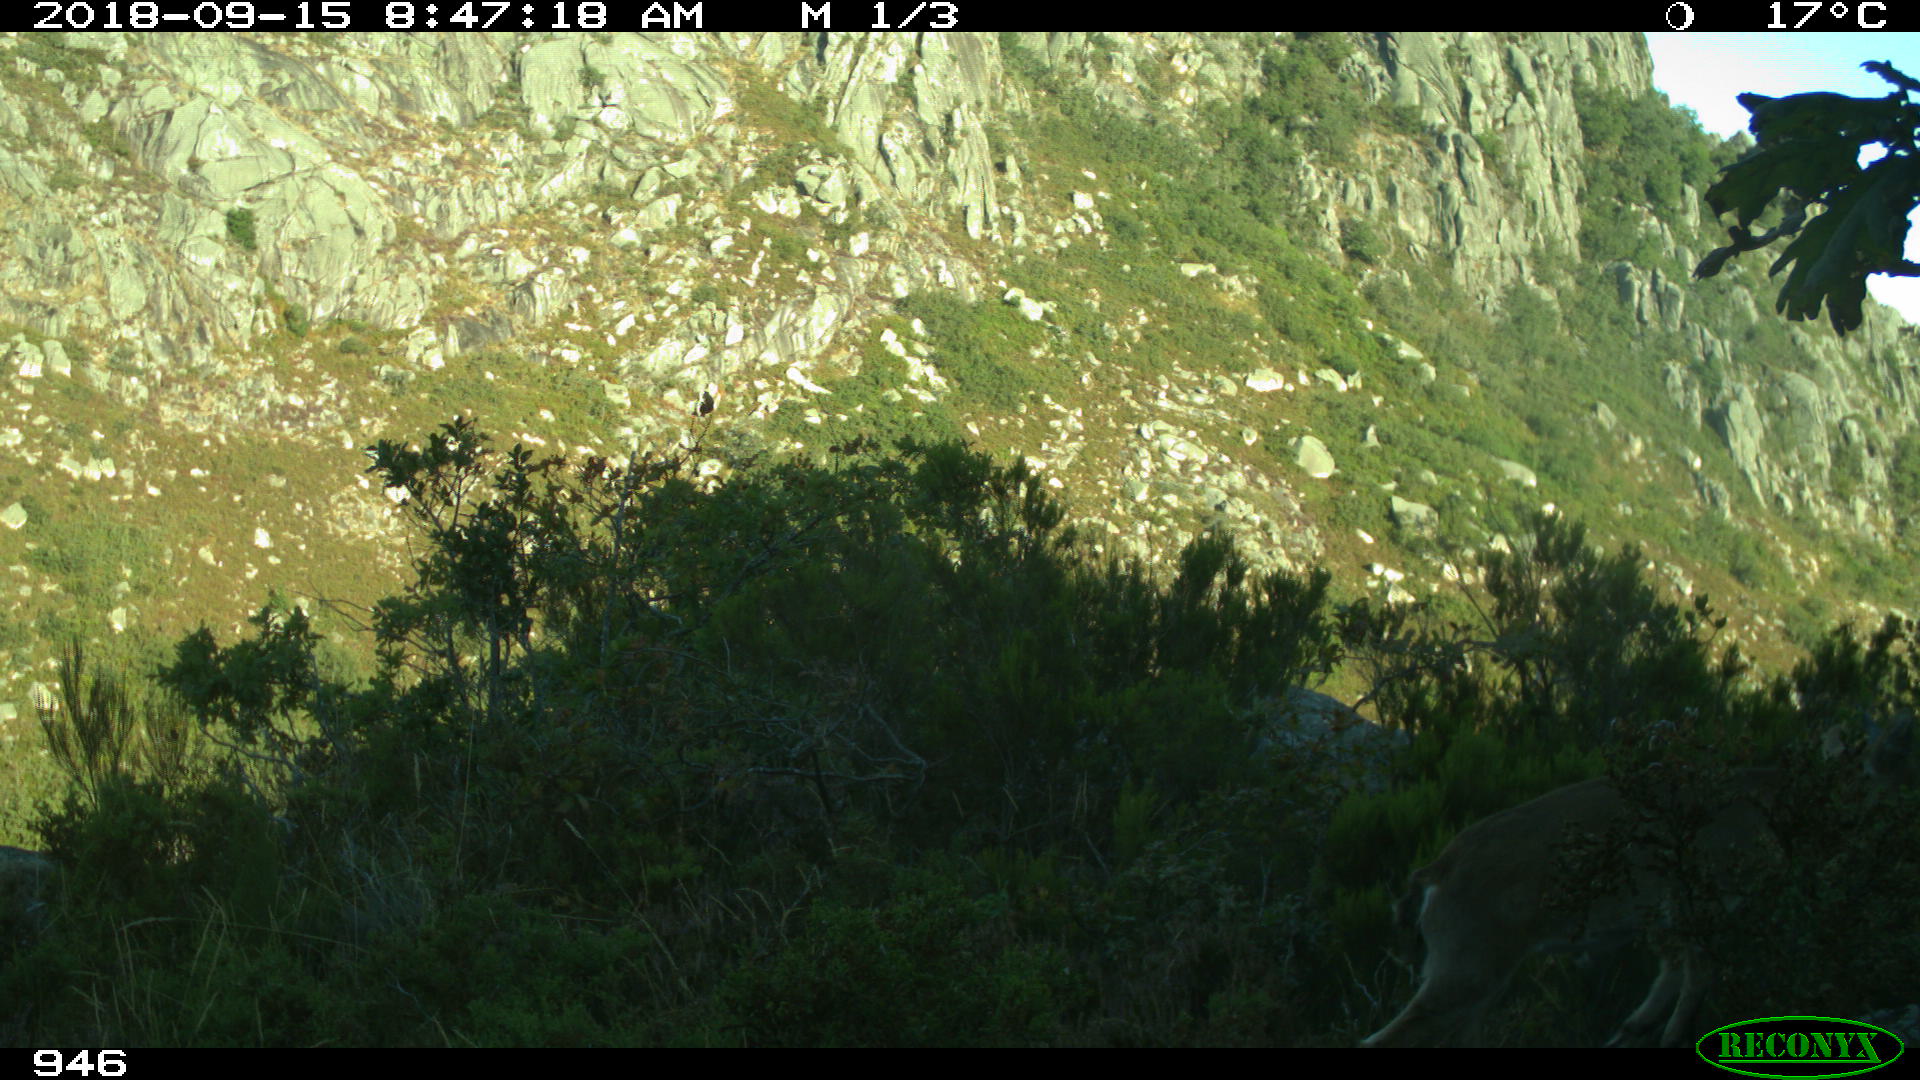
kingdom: Animalia
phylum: Chordata
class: Mammalia
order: Artiodactyla
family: Bovidae
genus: Capra
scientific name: Capra pyrenaica
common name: Spanish ibex
